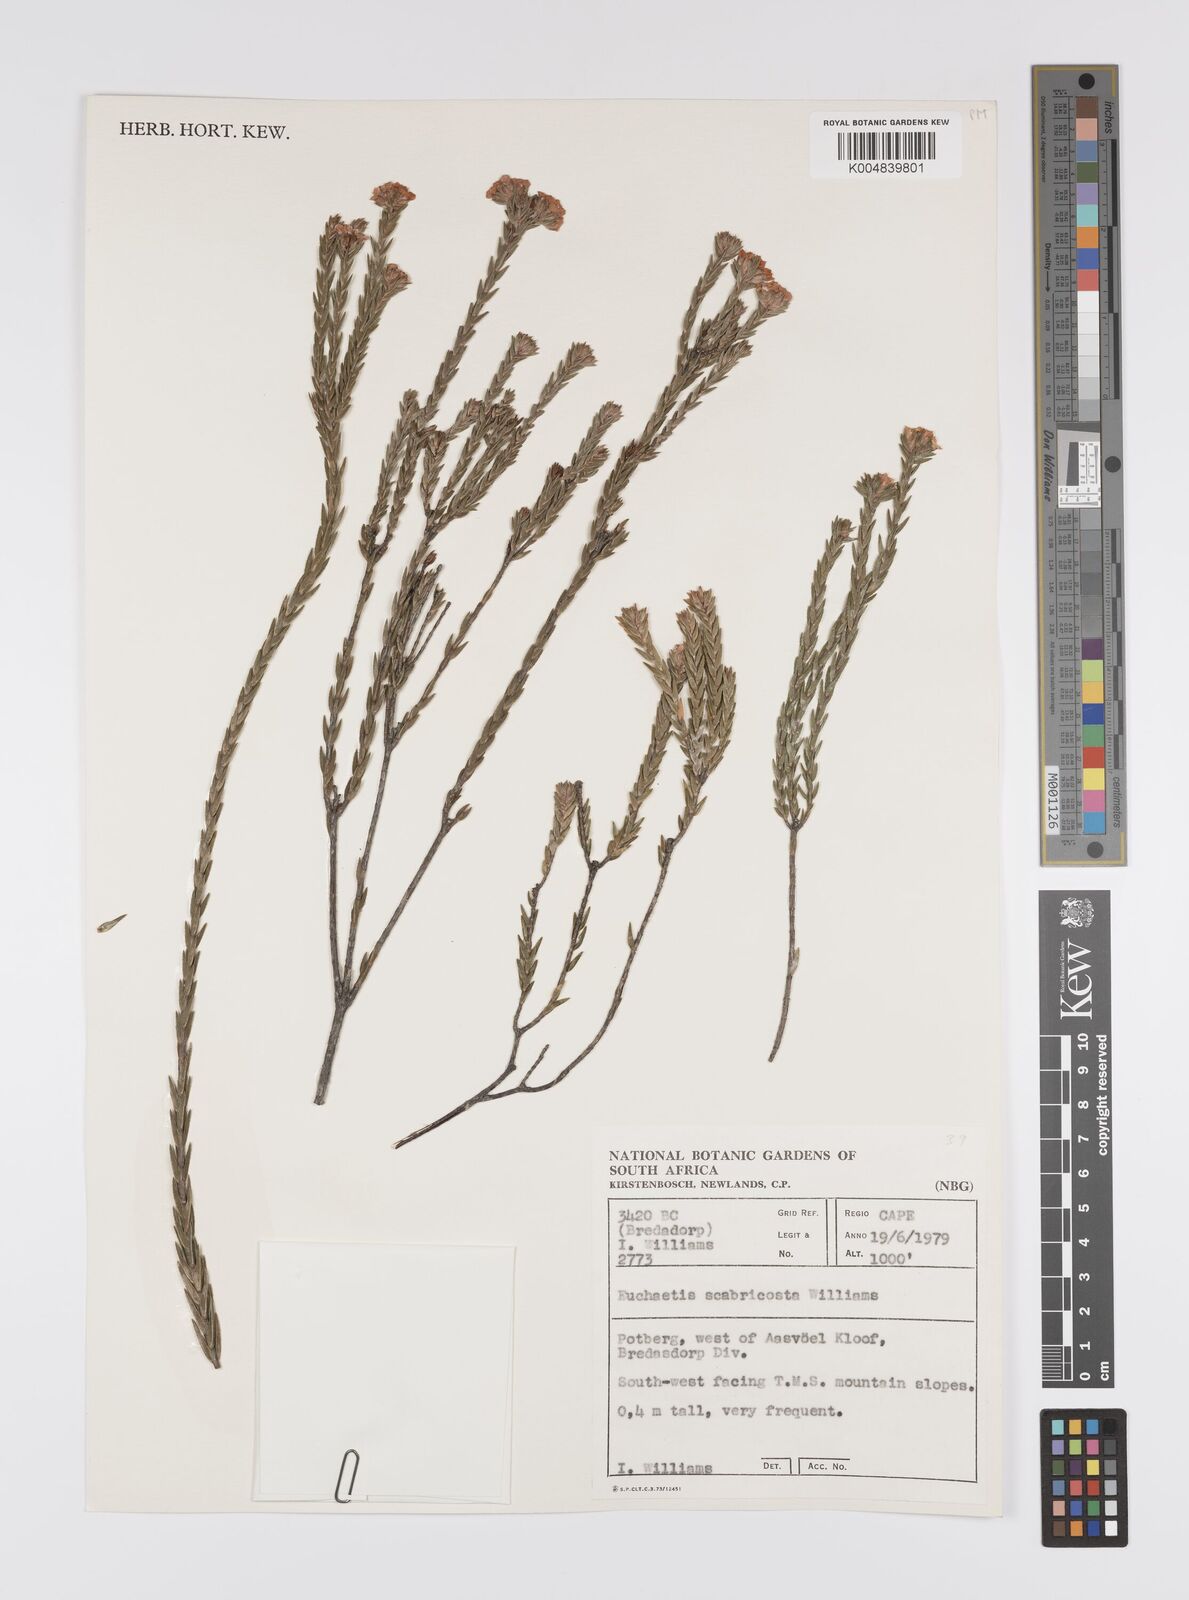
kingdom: Plantae
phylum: Tracheophyta
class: Magnoliopsida
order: Sapindales
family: Rutaceae
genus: Euchaetis
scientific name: Euchaetis scabricosta
